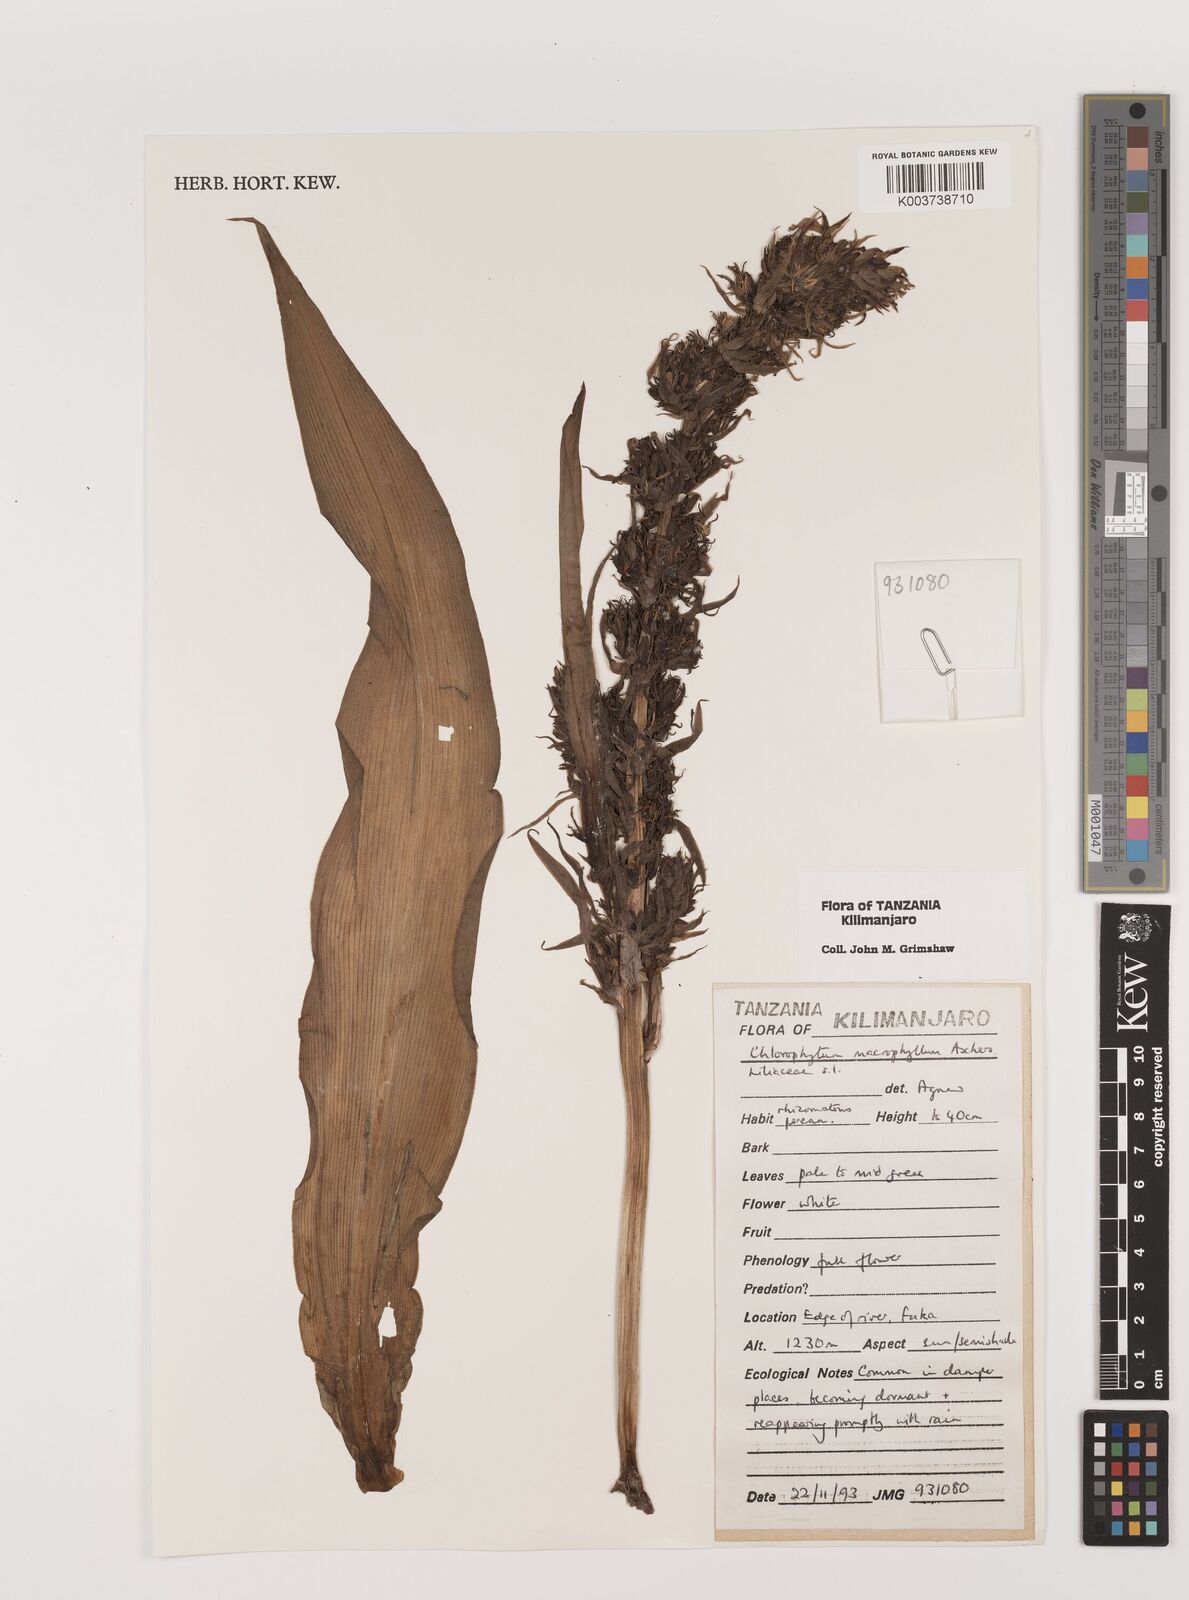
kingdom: Plantae
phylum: Tracheophyta
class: Liliopsida
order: Asparagales
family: Asparagaceae
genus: Chlorophytum
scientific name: Chlorophytum macrophyllum
